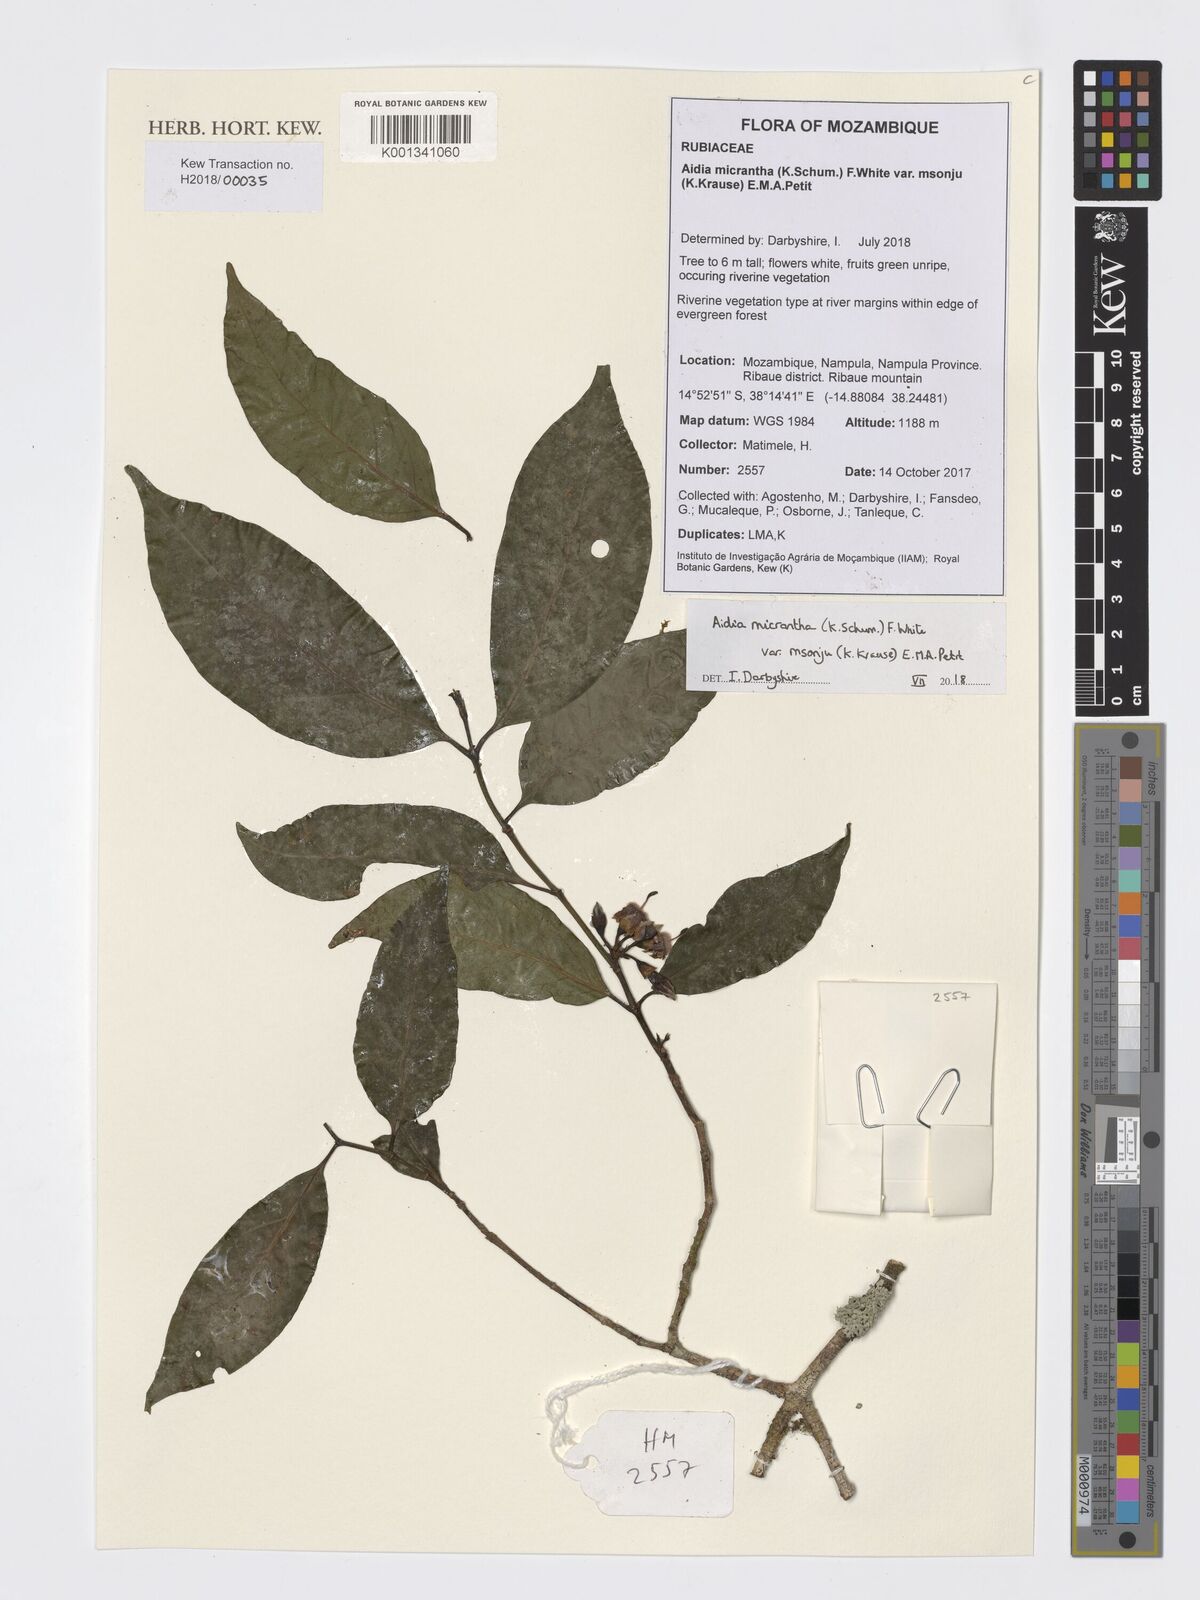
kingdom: Plantae
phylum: Tracheophyta
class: Magnoliopsida
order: Gentianales
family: Rubiaceae
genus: Aidia
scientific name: Aidia micrantha
